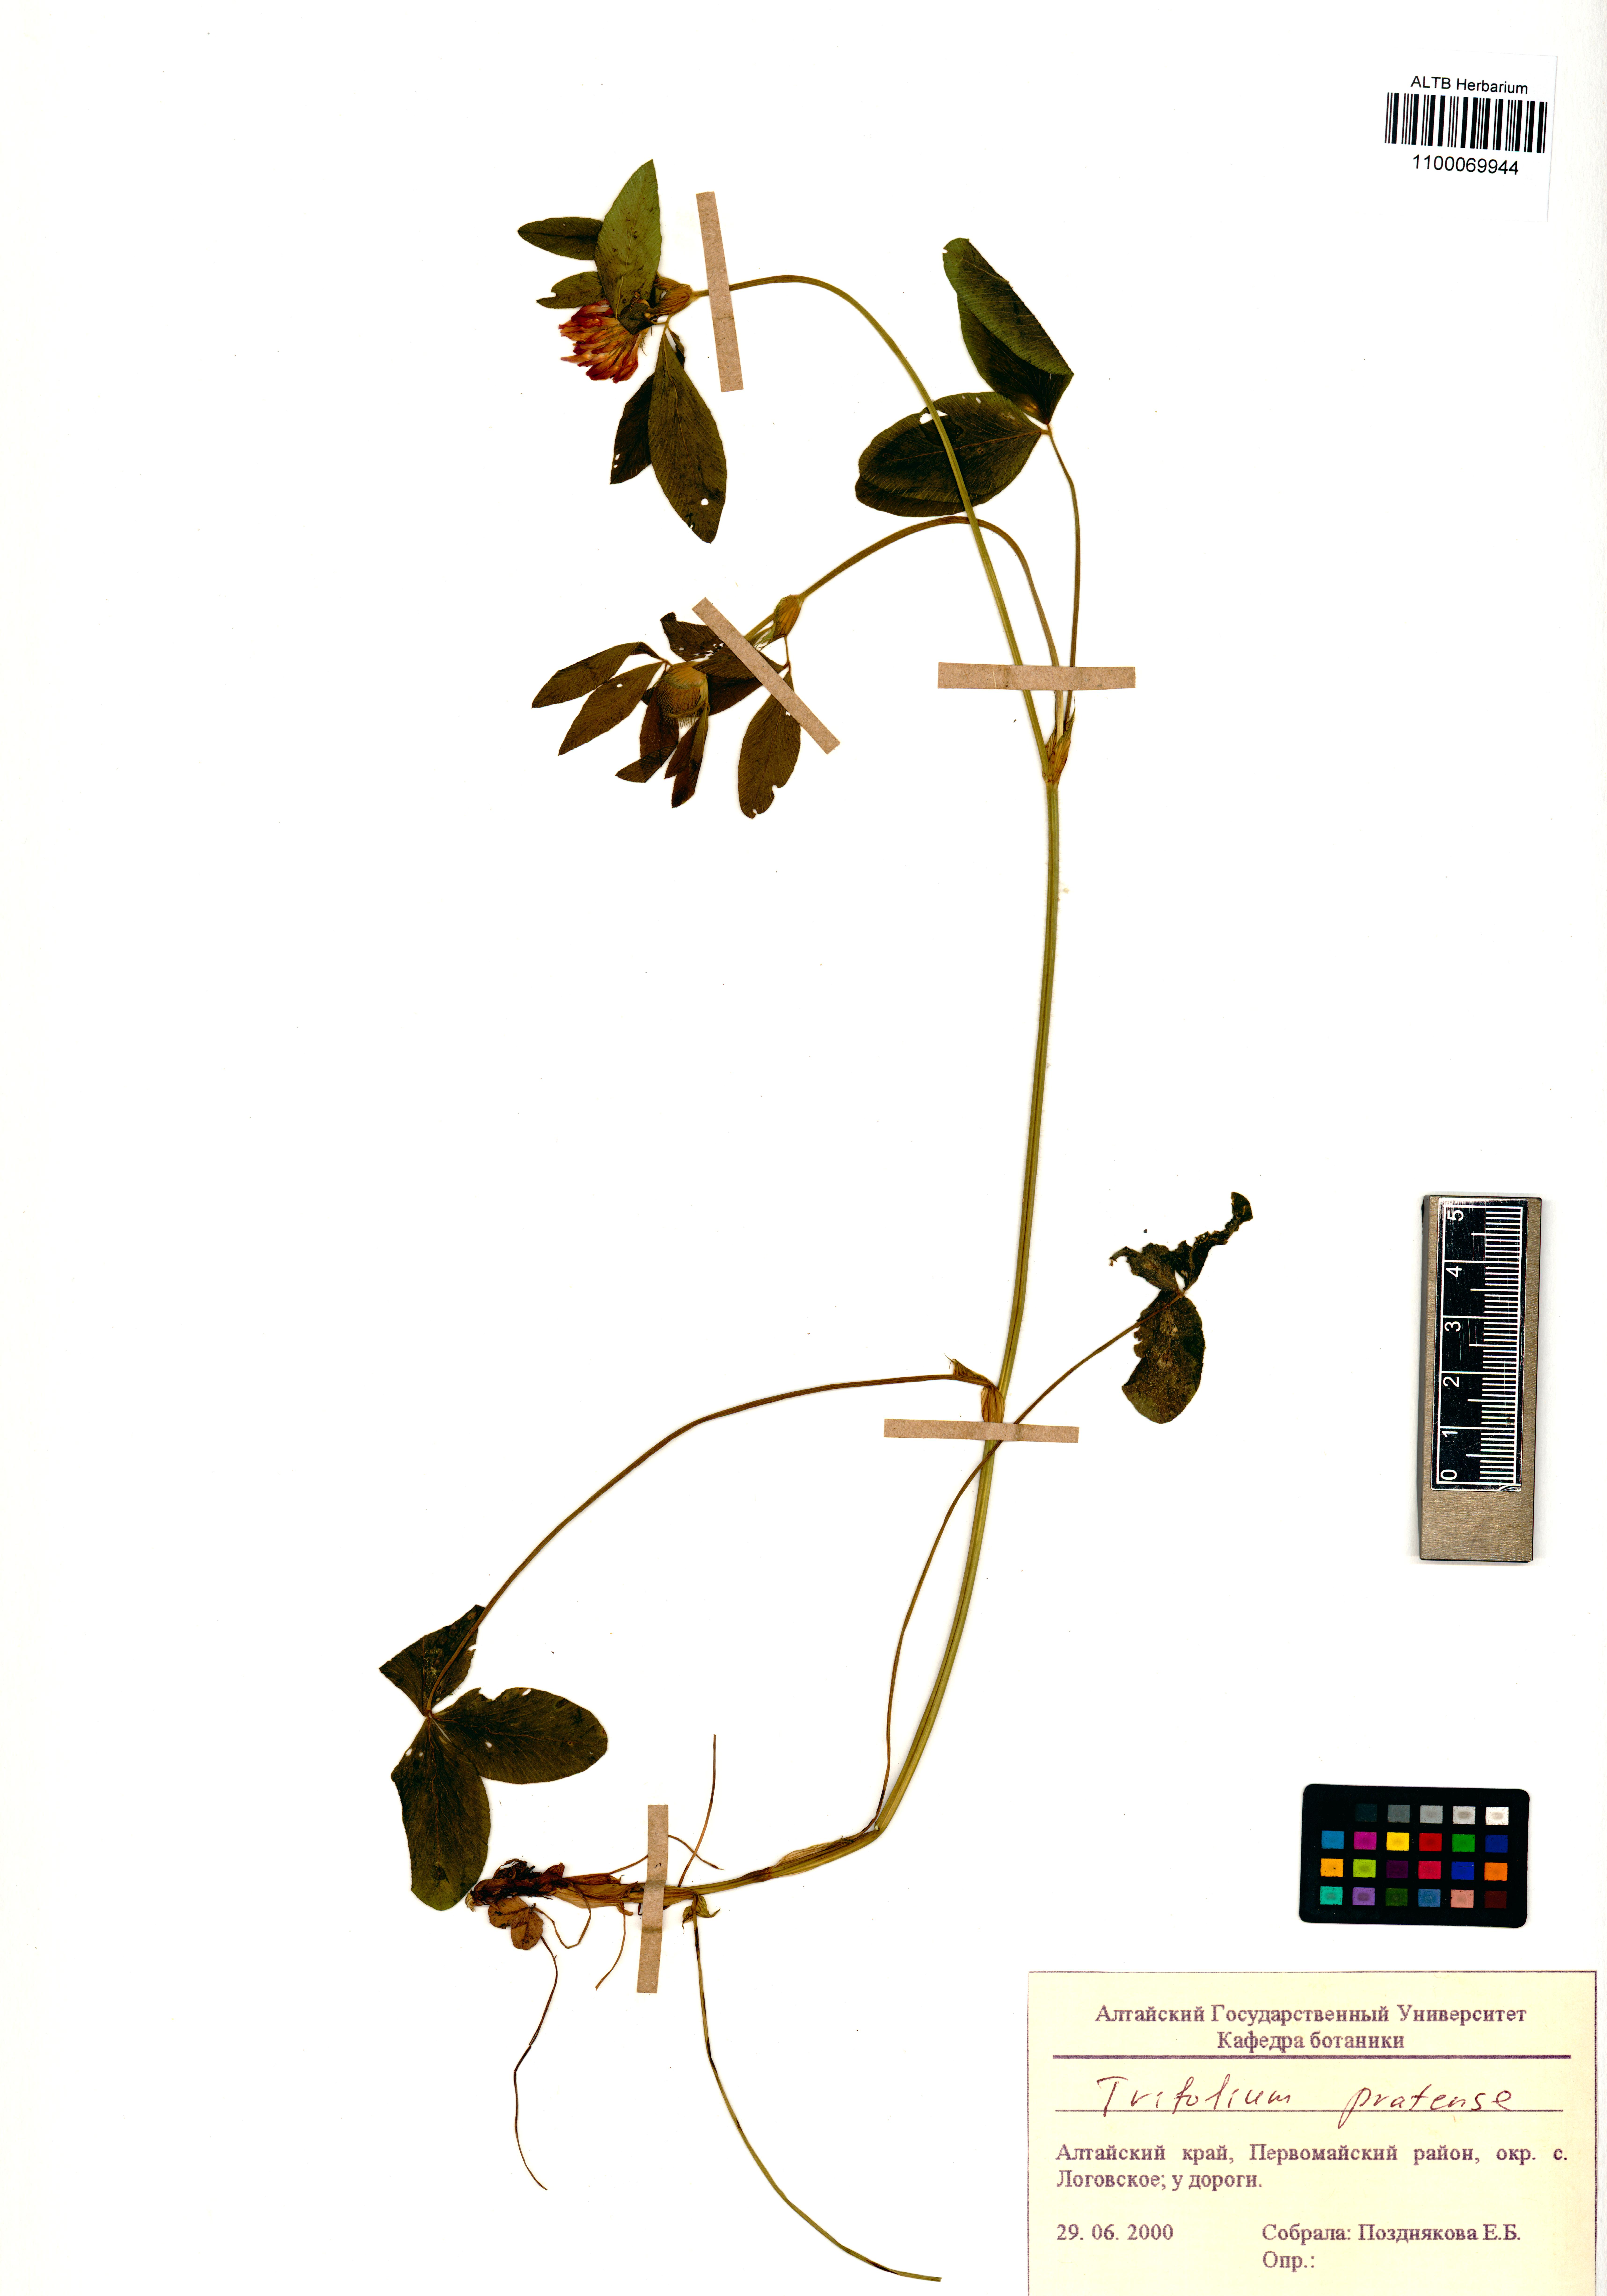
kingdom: Plantae
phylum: Tracheophyta
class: Magnoliopsida
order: Fabales
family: Fabaceae
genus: Trifolium
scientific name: Trifolium pratense
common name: Red clover
